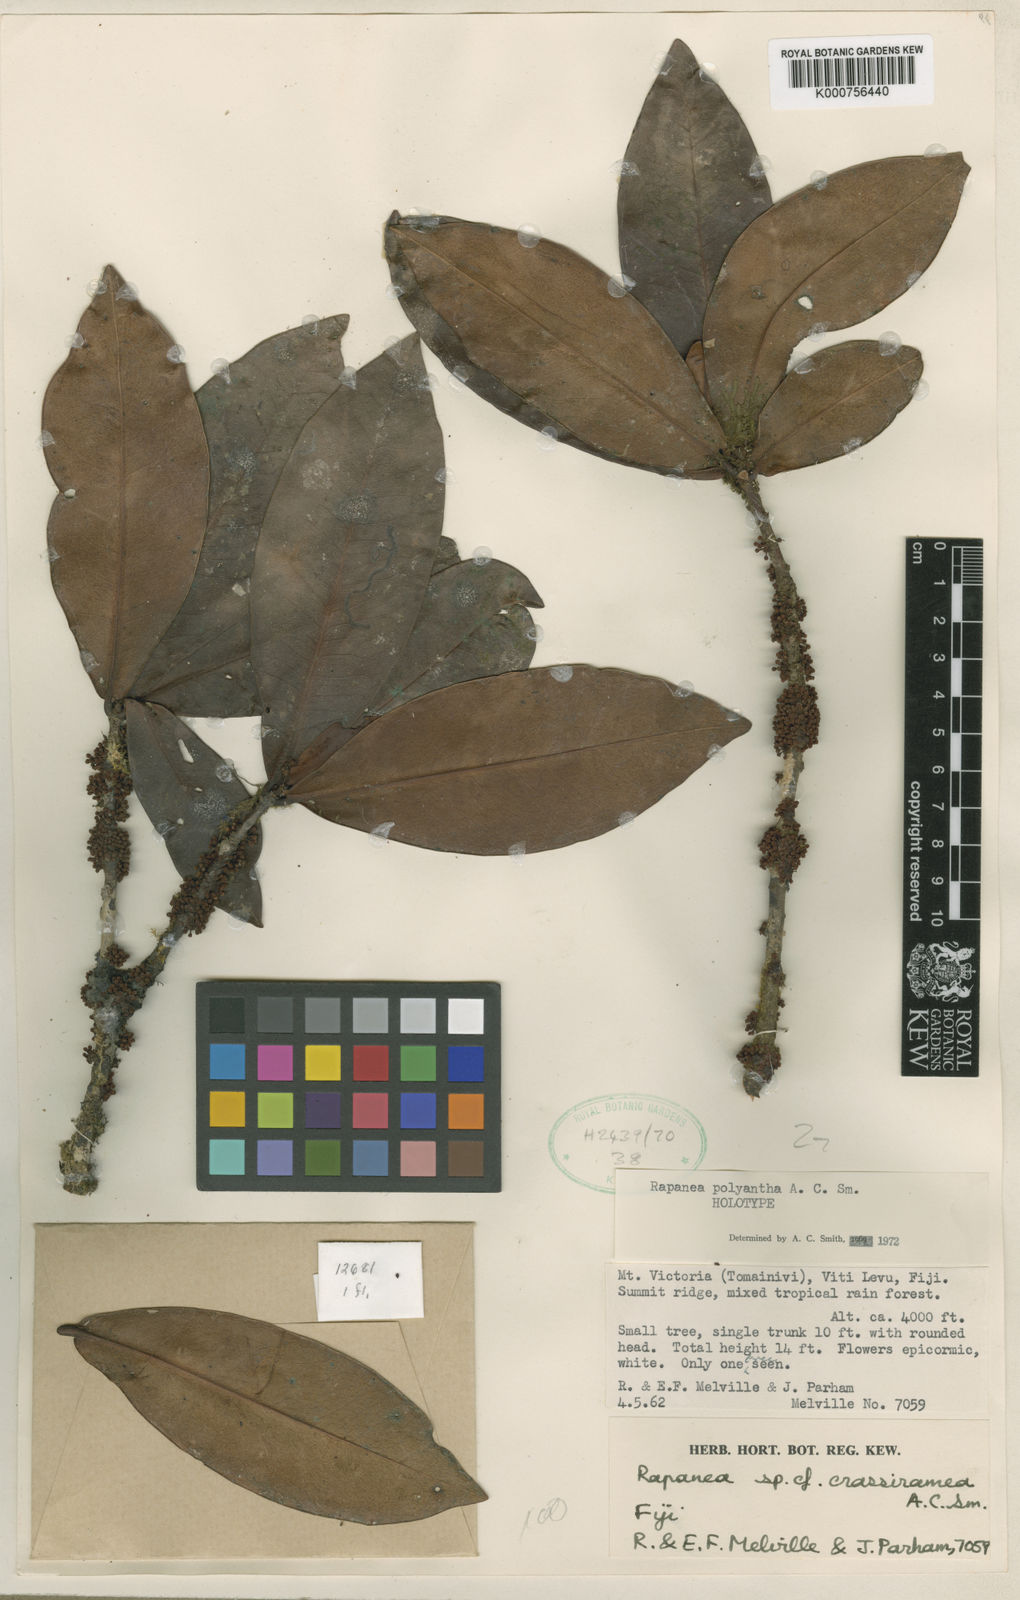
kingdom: Plantae
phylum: Tracheophyta
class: Magnoliopsida
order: Ericales
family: Primulaceae
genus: Myrsine
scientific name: Myrsine polyantha
